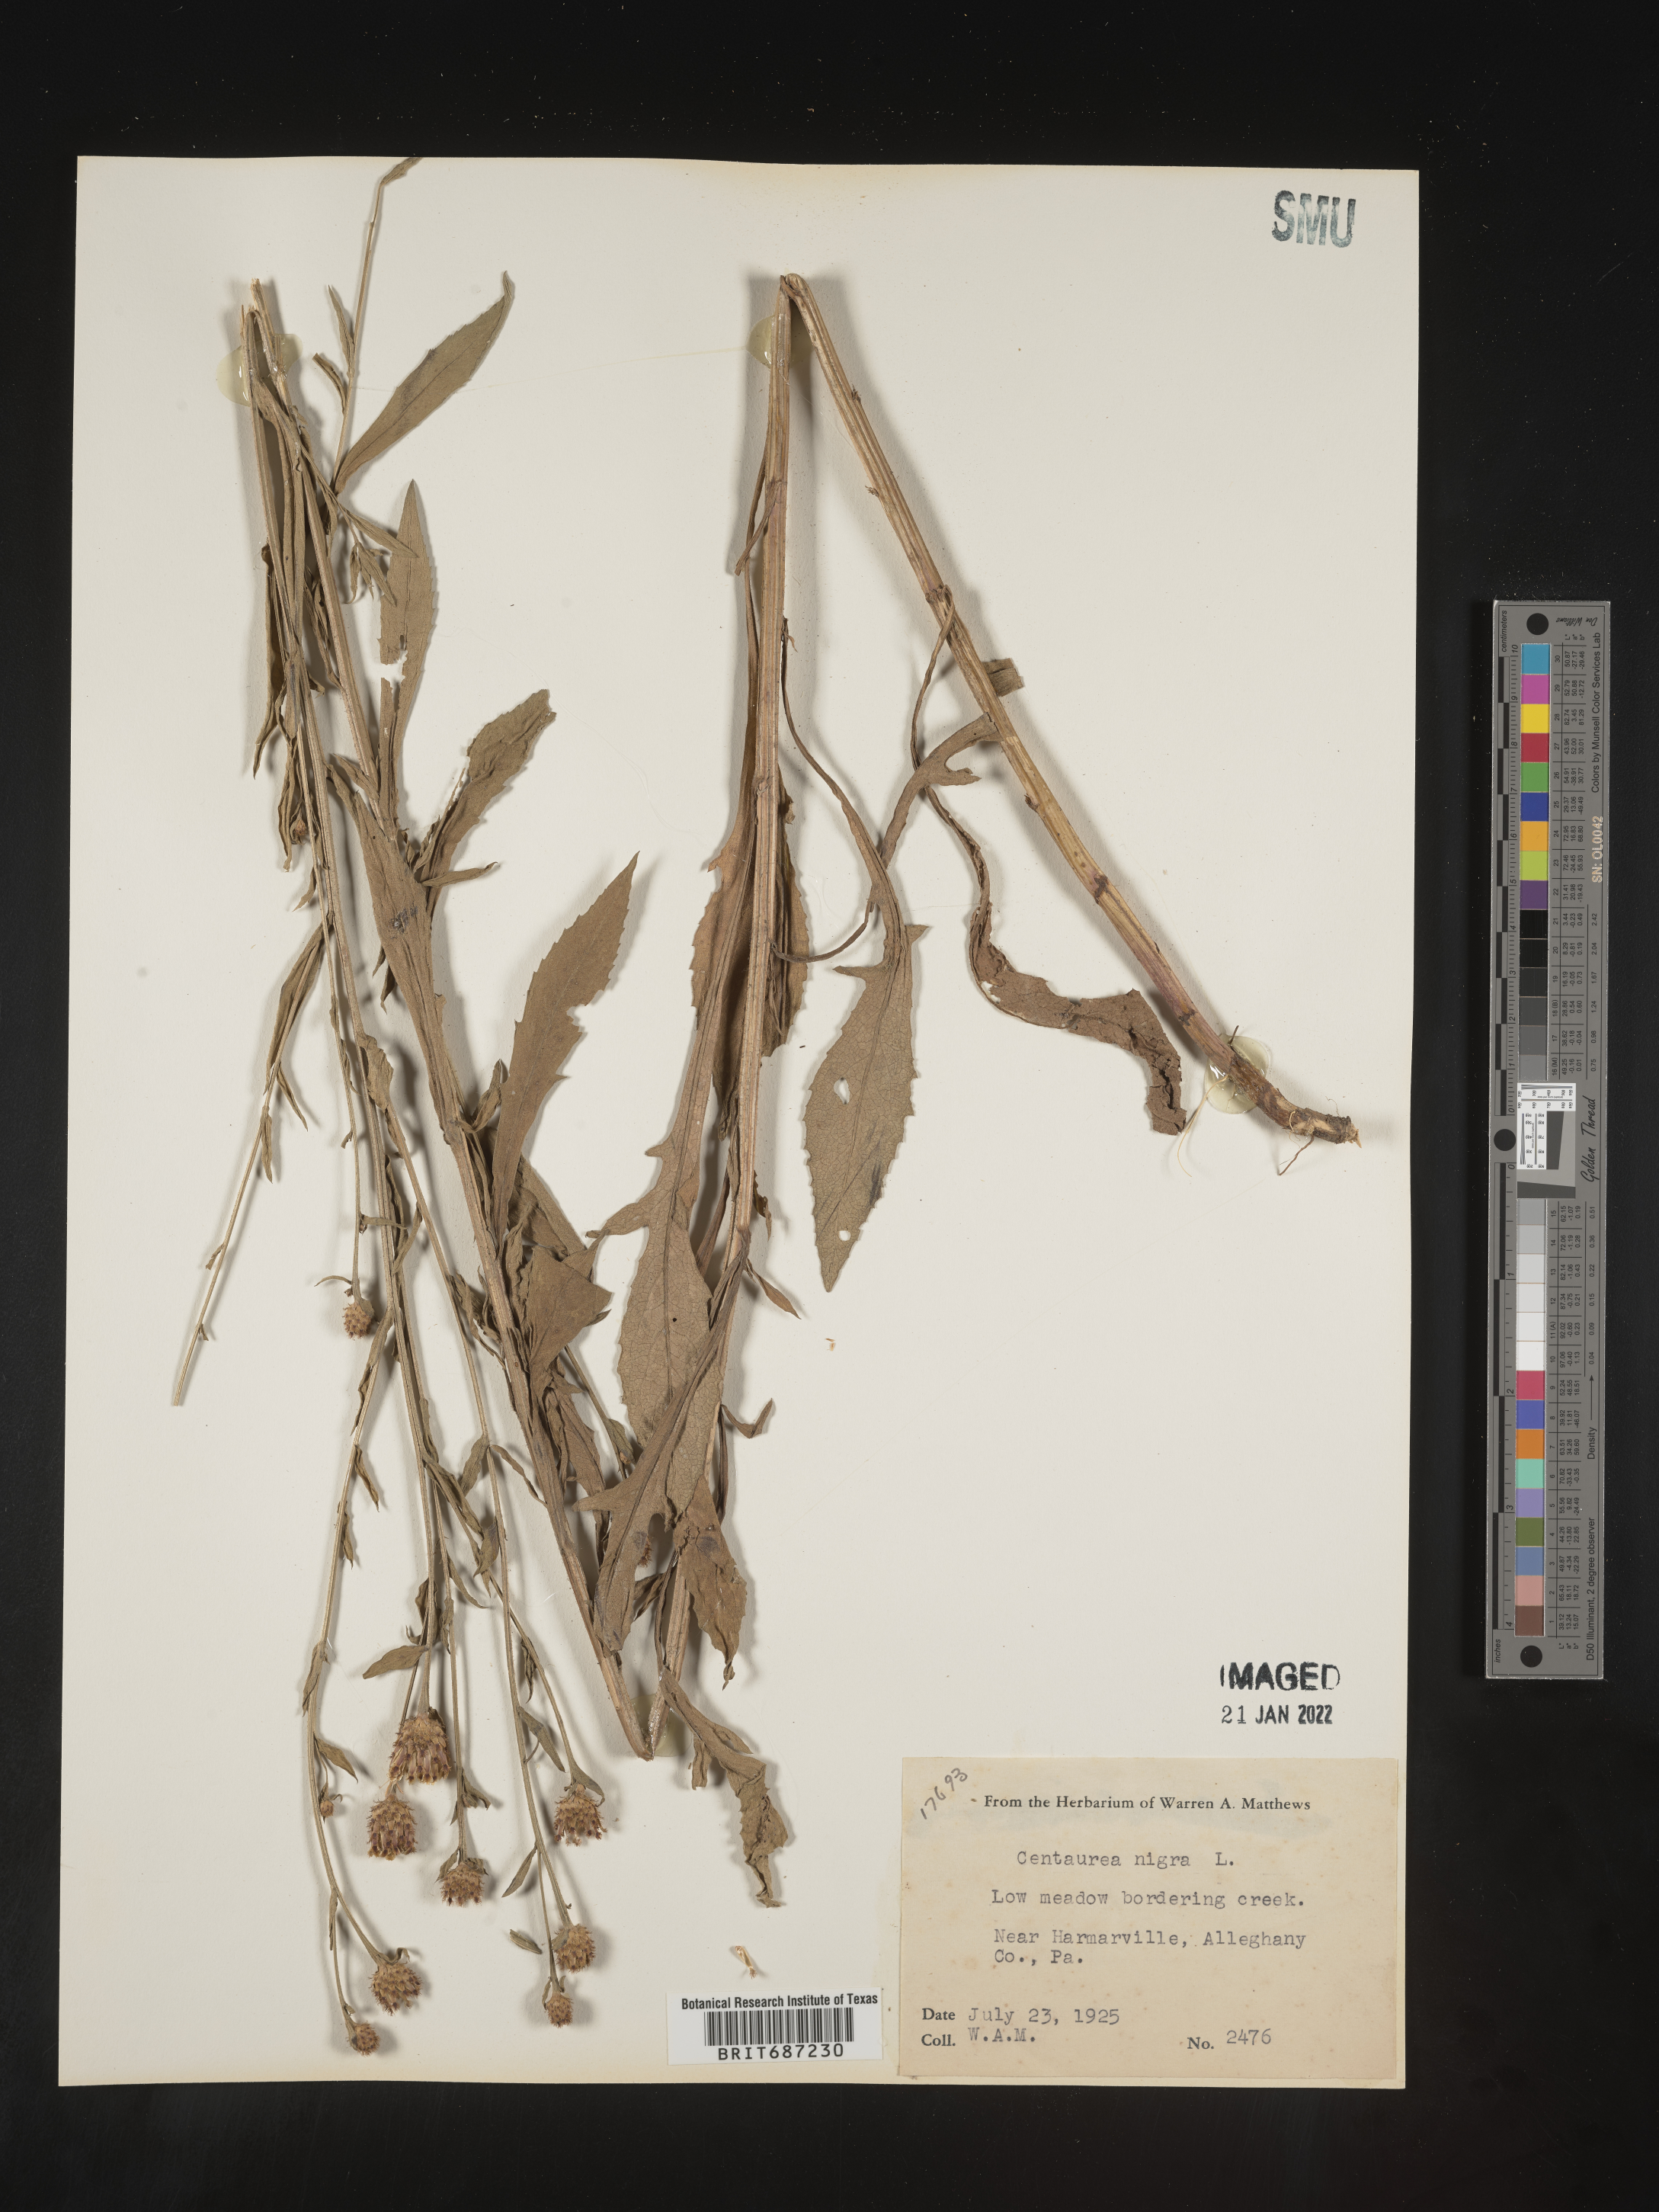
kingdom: Plantae
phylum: Tracheophyta
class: Magnoliopsida
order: Asterales
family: Asteraceae
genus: Centaurea
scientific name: Centaurea nigra
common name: Lesser knapweed
